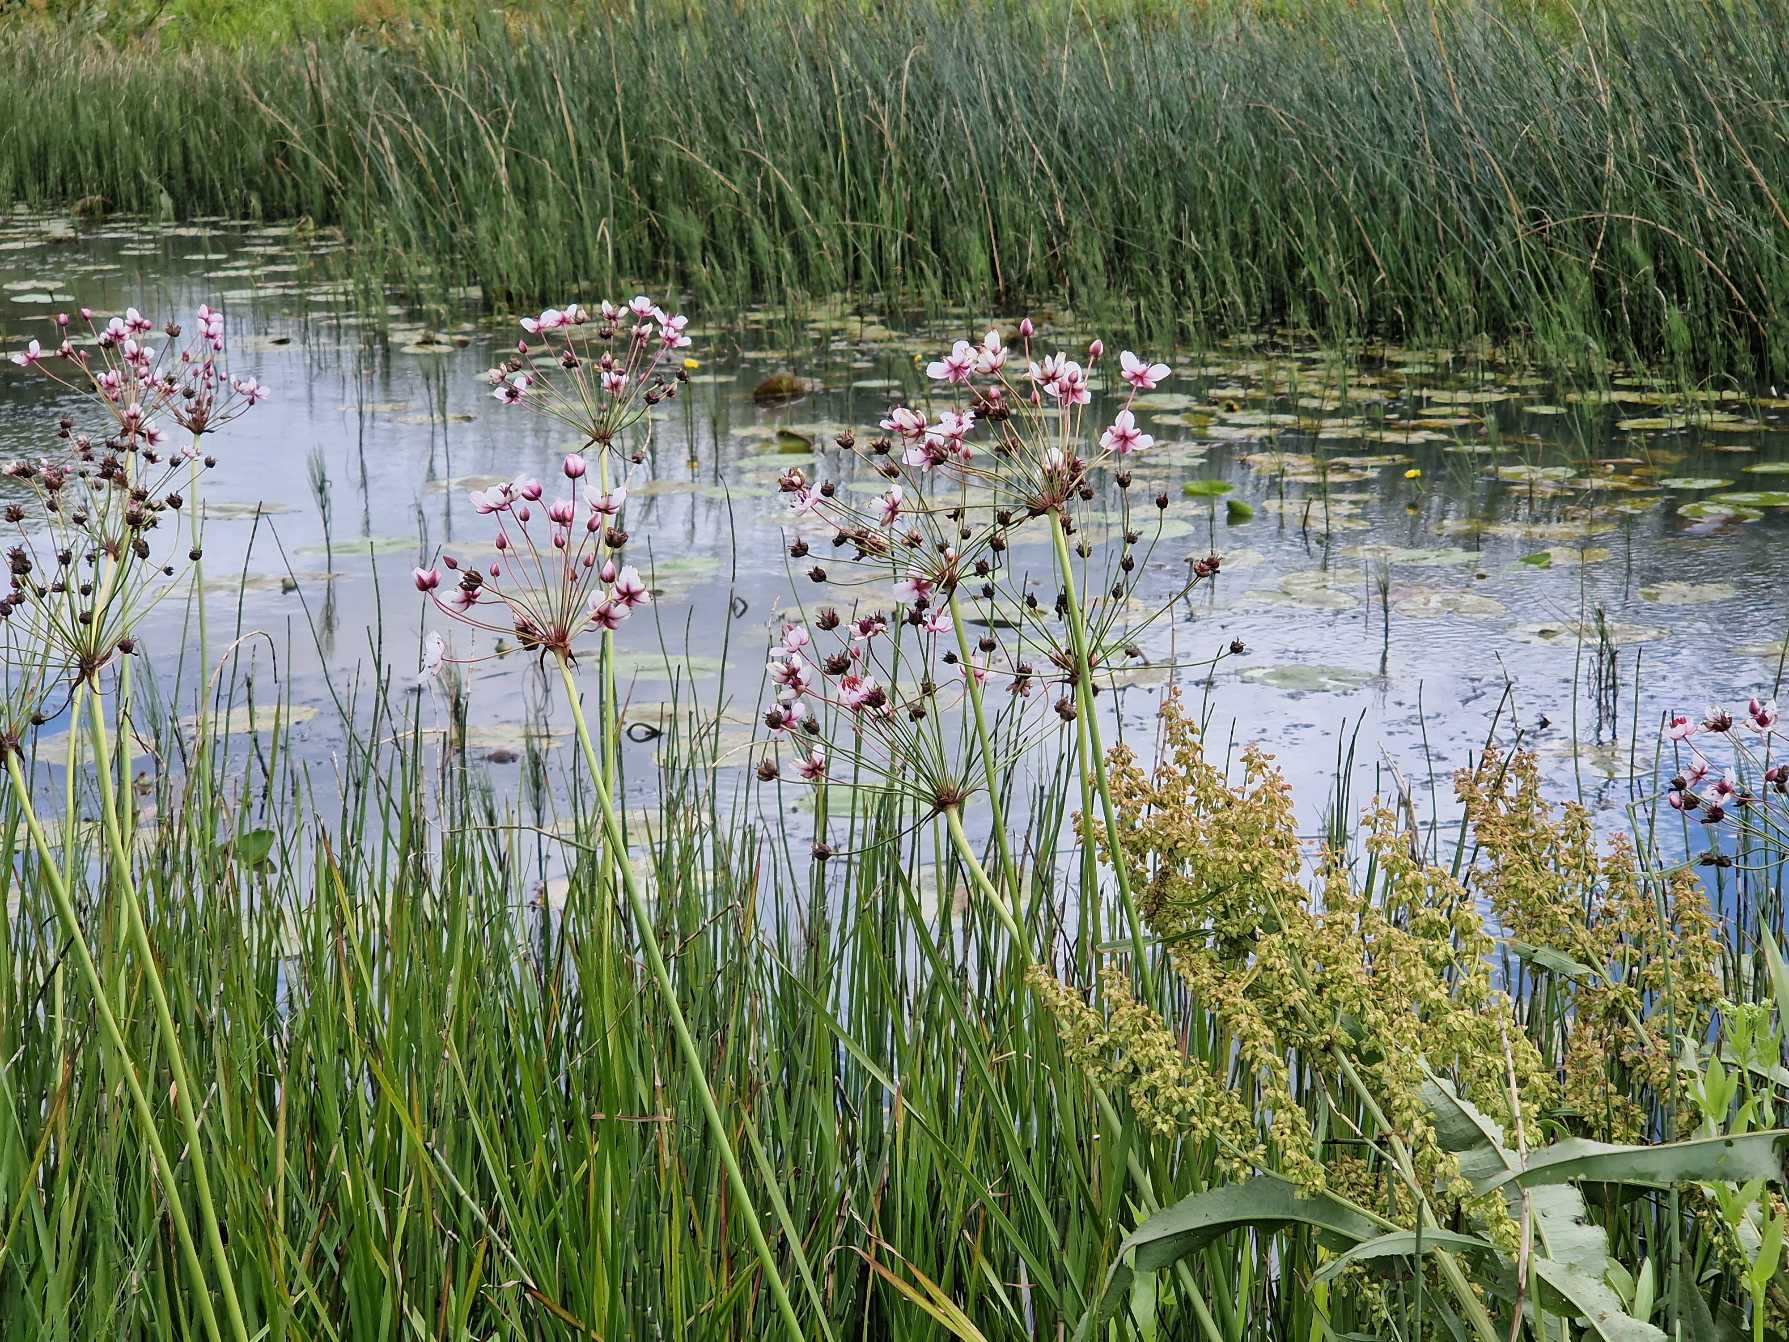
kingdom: Plantae
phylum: Tracheophyta
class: Liliopsida
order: Alismatales
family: Butomaceae
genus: Butomus
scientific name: Butomus umbellatus
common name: Brudelys
